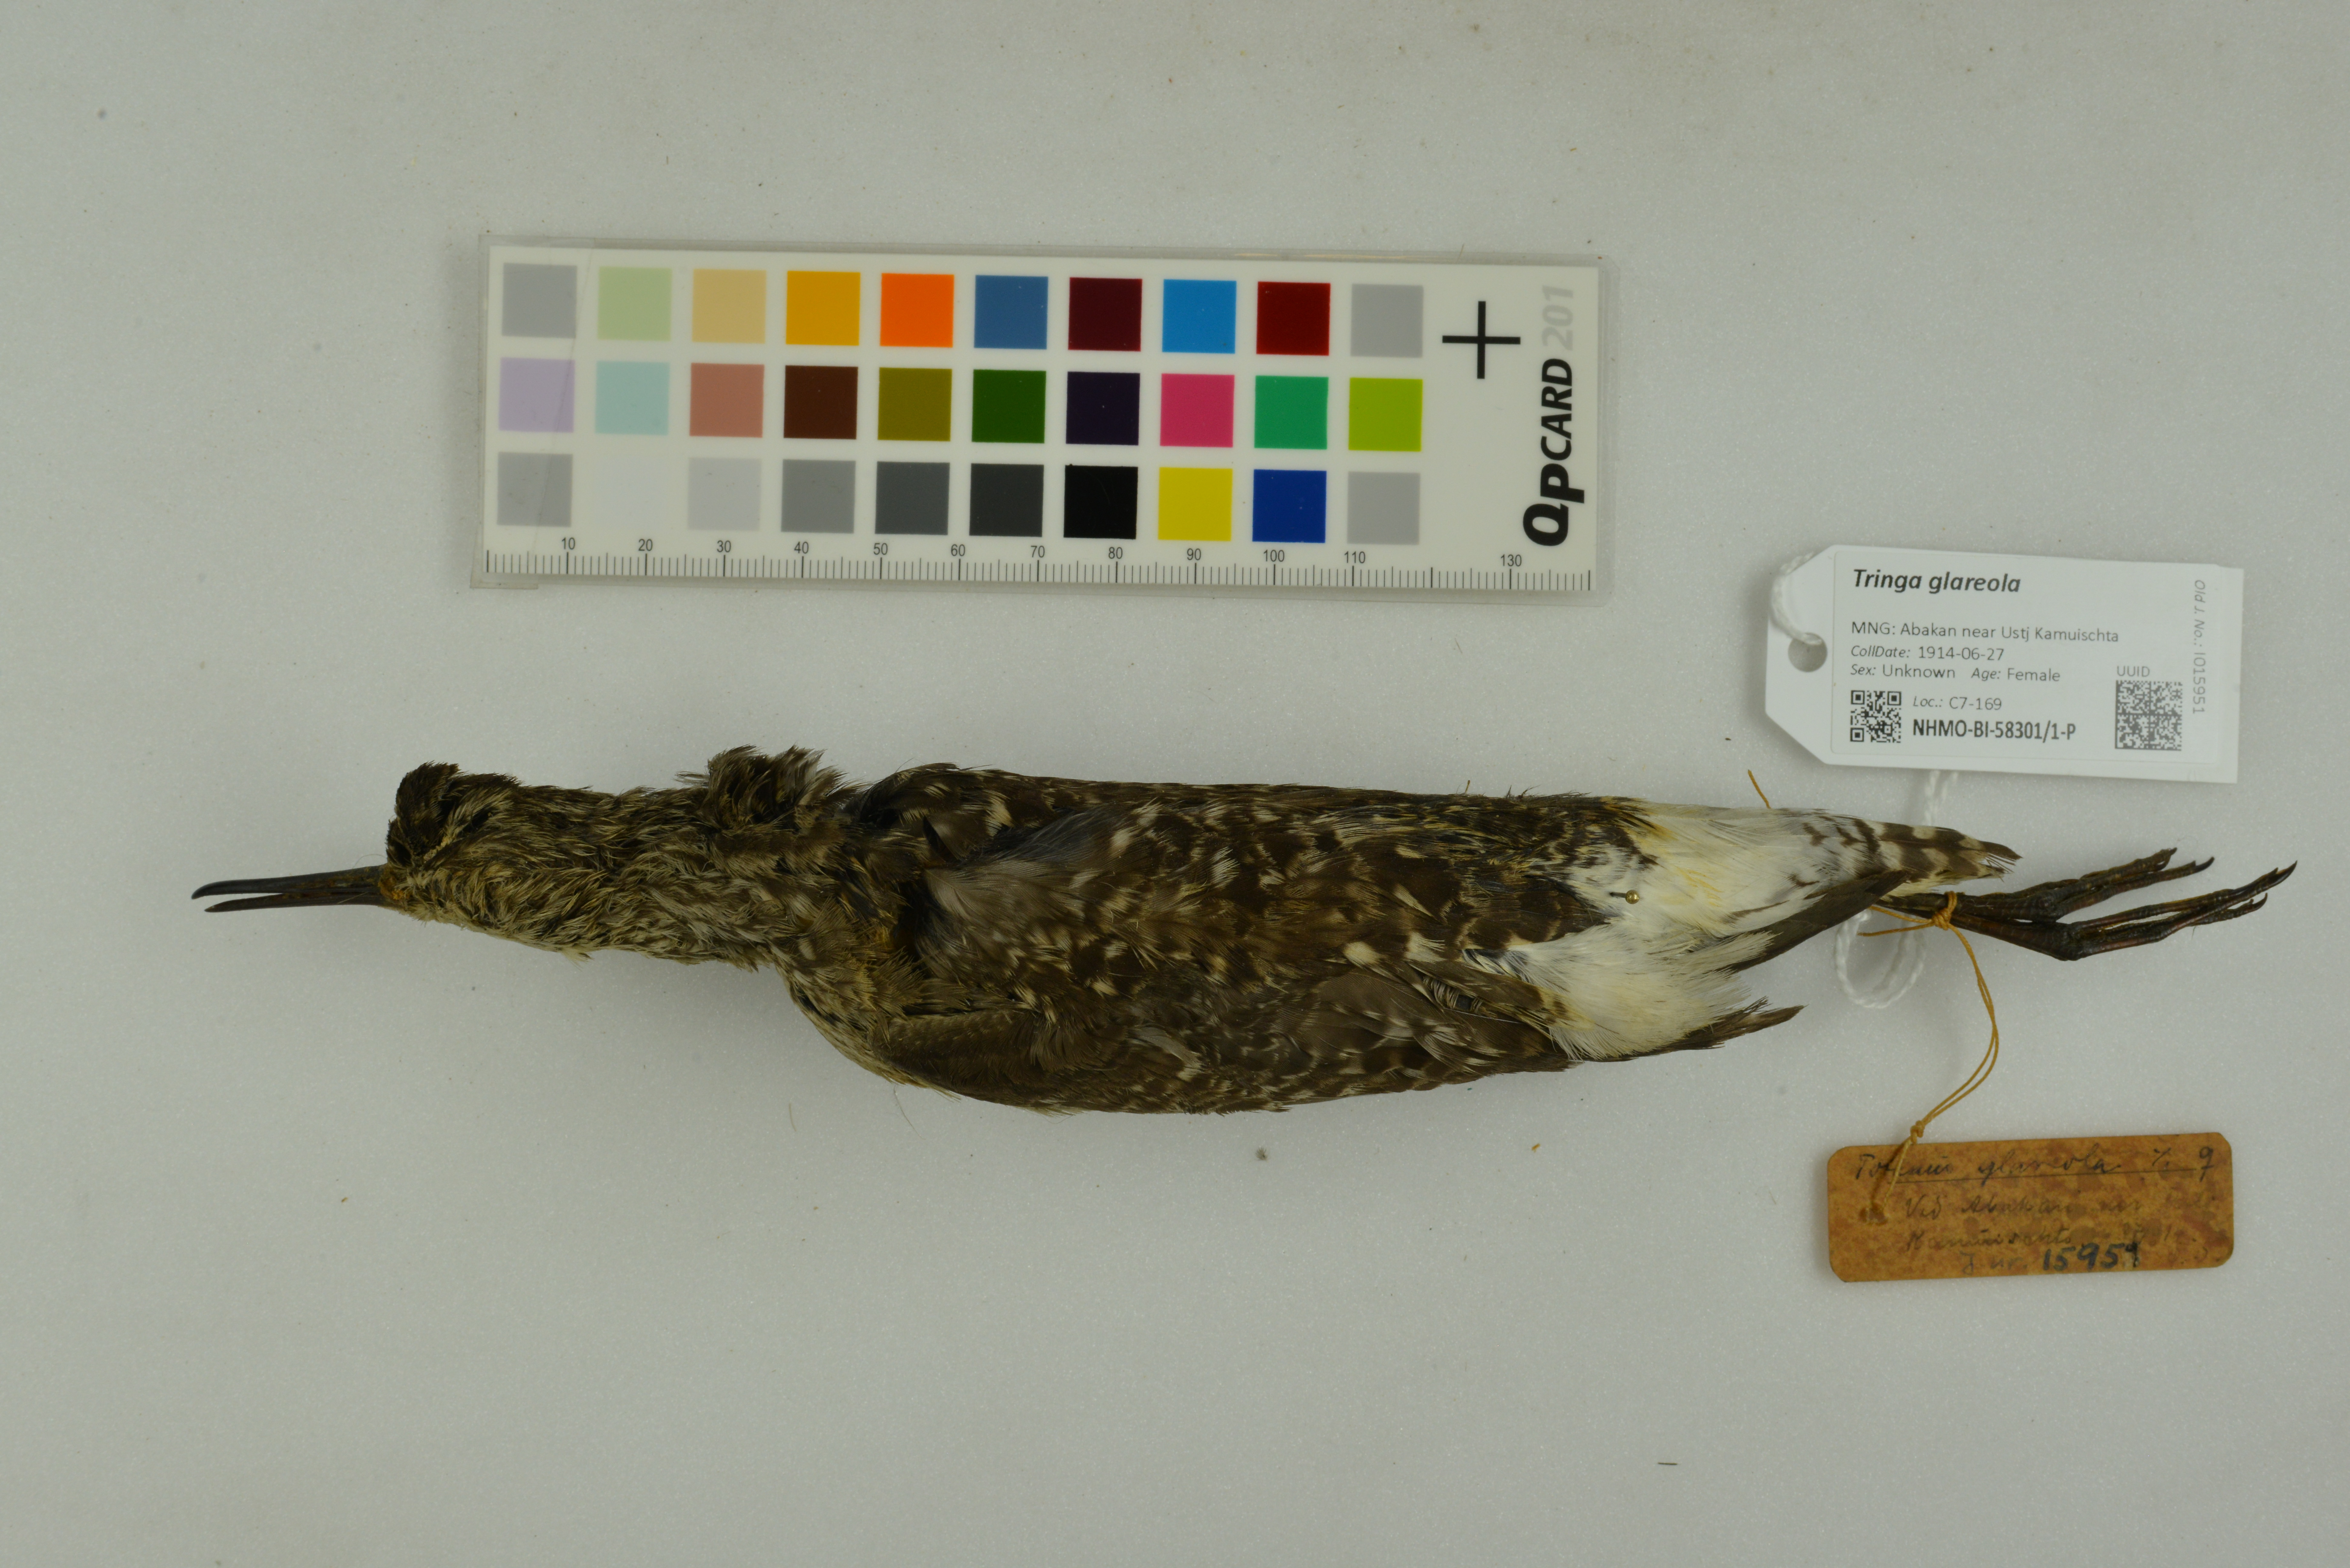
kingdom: Animalia
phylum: Chordata
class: Aves
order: Charadriiformes
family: Scolopacidae
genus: Tringa
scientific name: Tringa glareola
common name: Wood sandpiper
